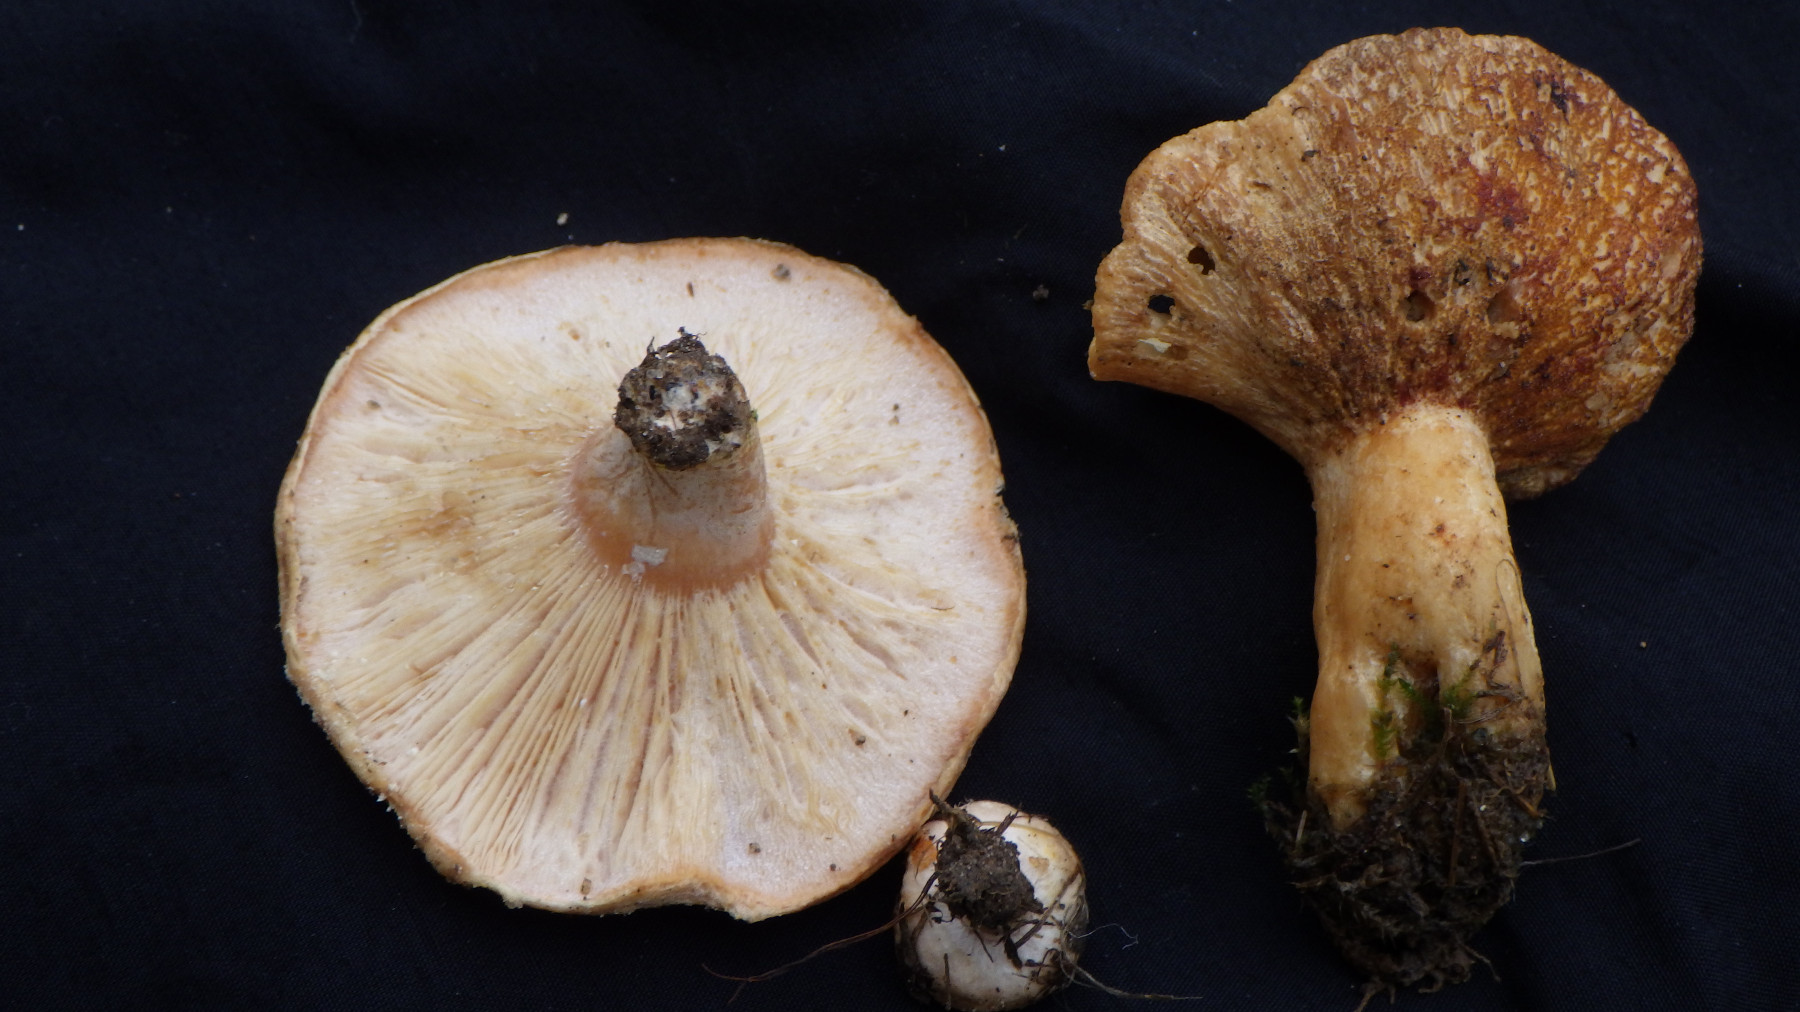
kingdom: Fungi
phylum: Basidiomycota
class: Agaricomycetes
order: Russulales
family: Russulaceae
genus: Lactarius
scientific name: Lactarius pubescens
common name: dunet mælkehat
